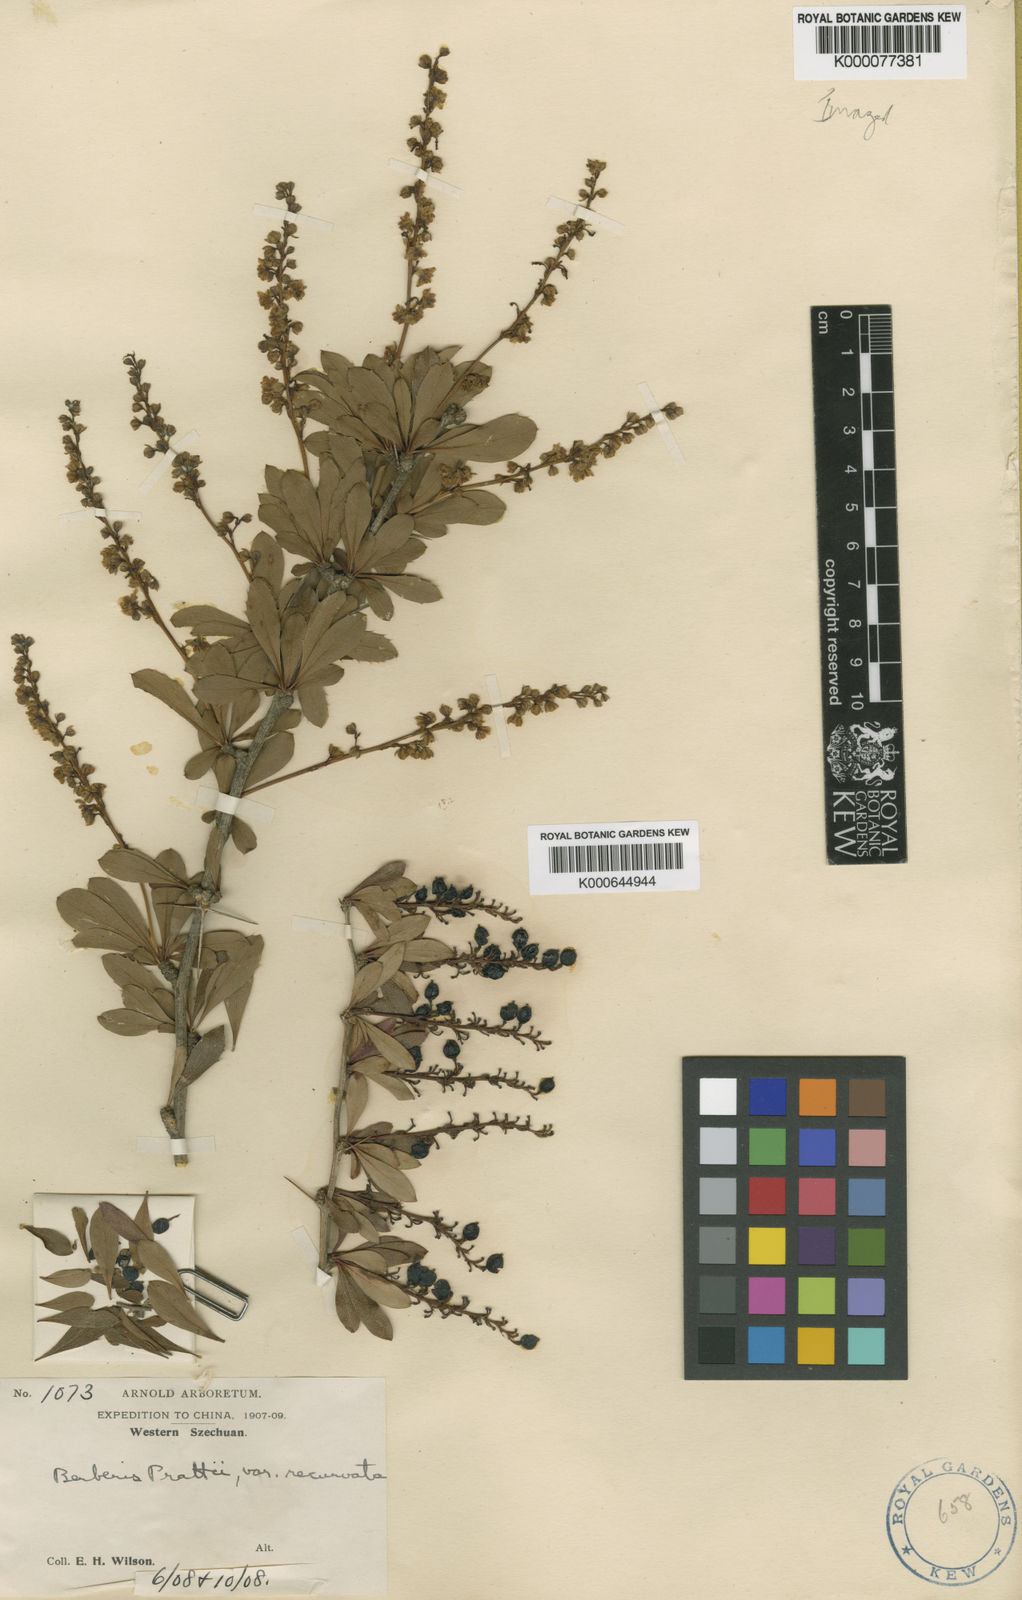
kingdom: Plantae
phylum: Tracheophyta
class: Magnoliopsida
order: Ranunculales
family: Berberidaceae
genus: Berberis
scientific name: Berberis prattii
